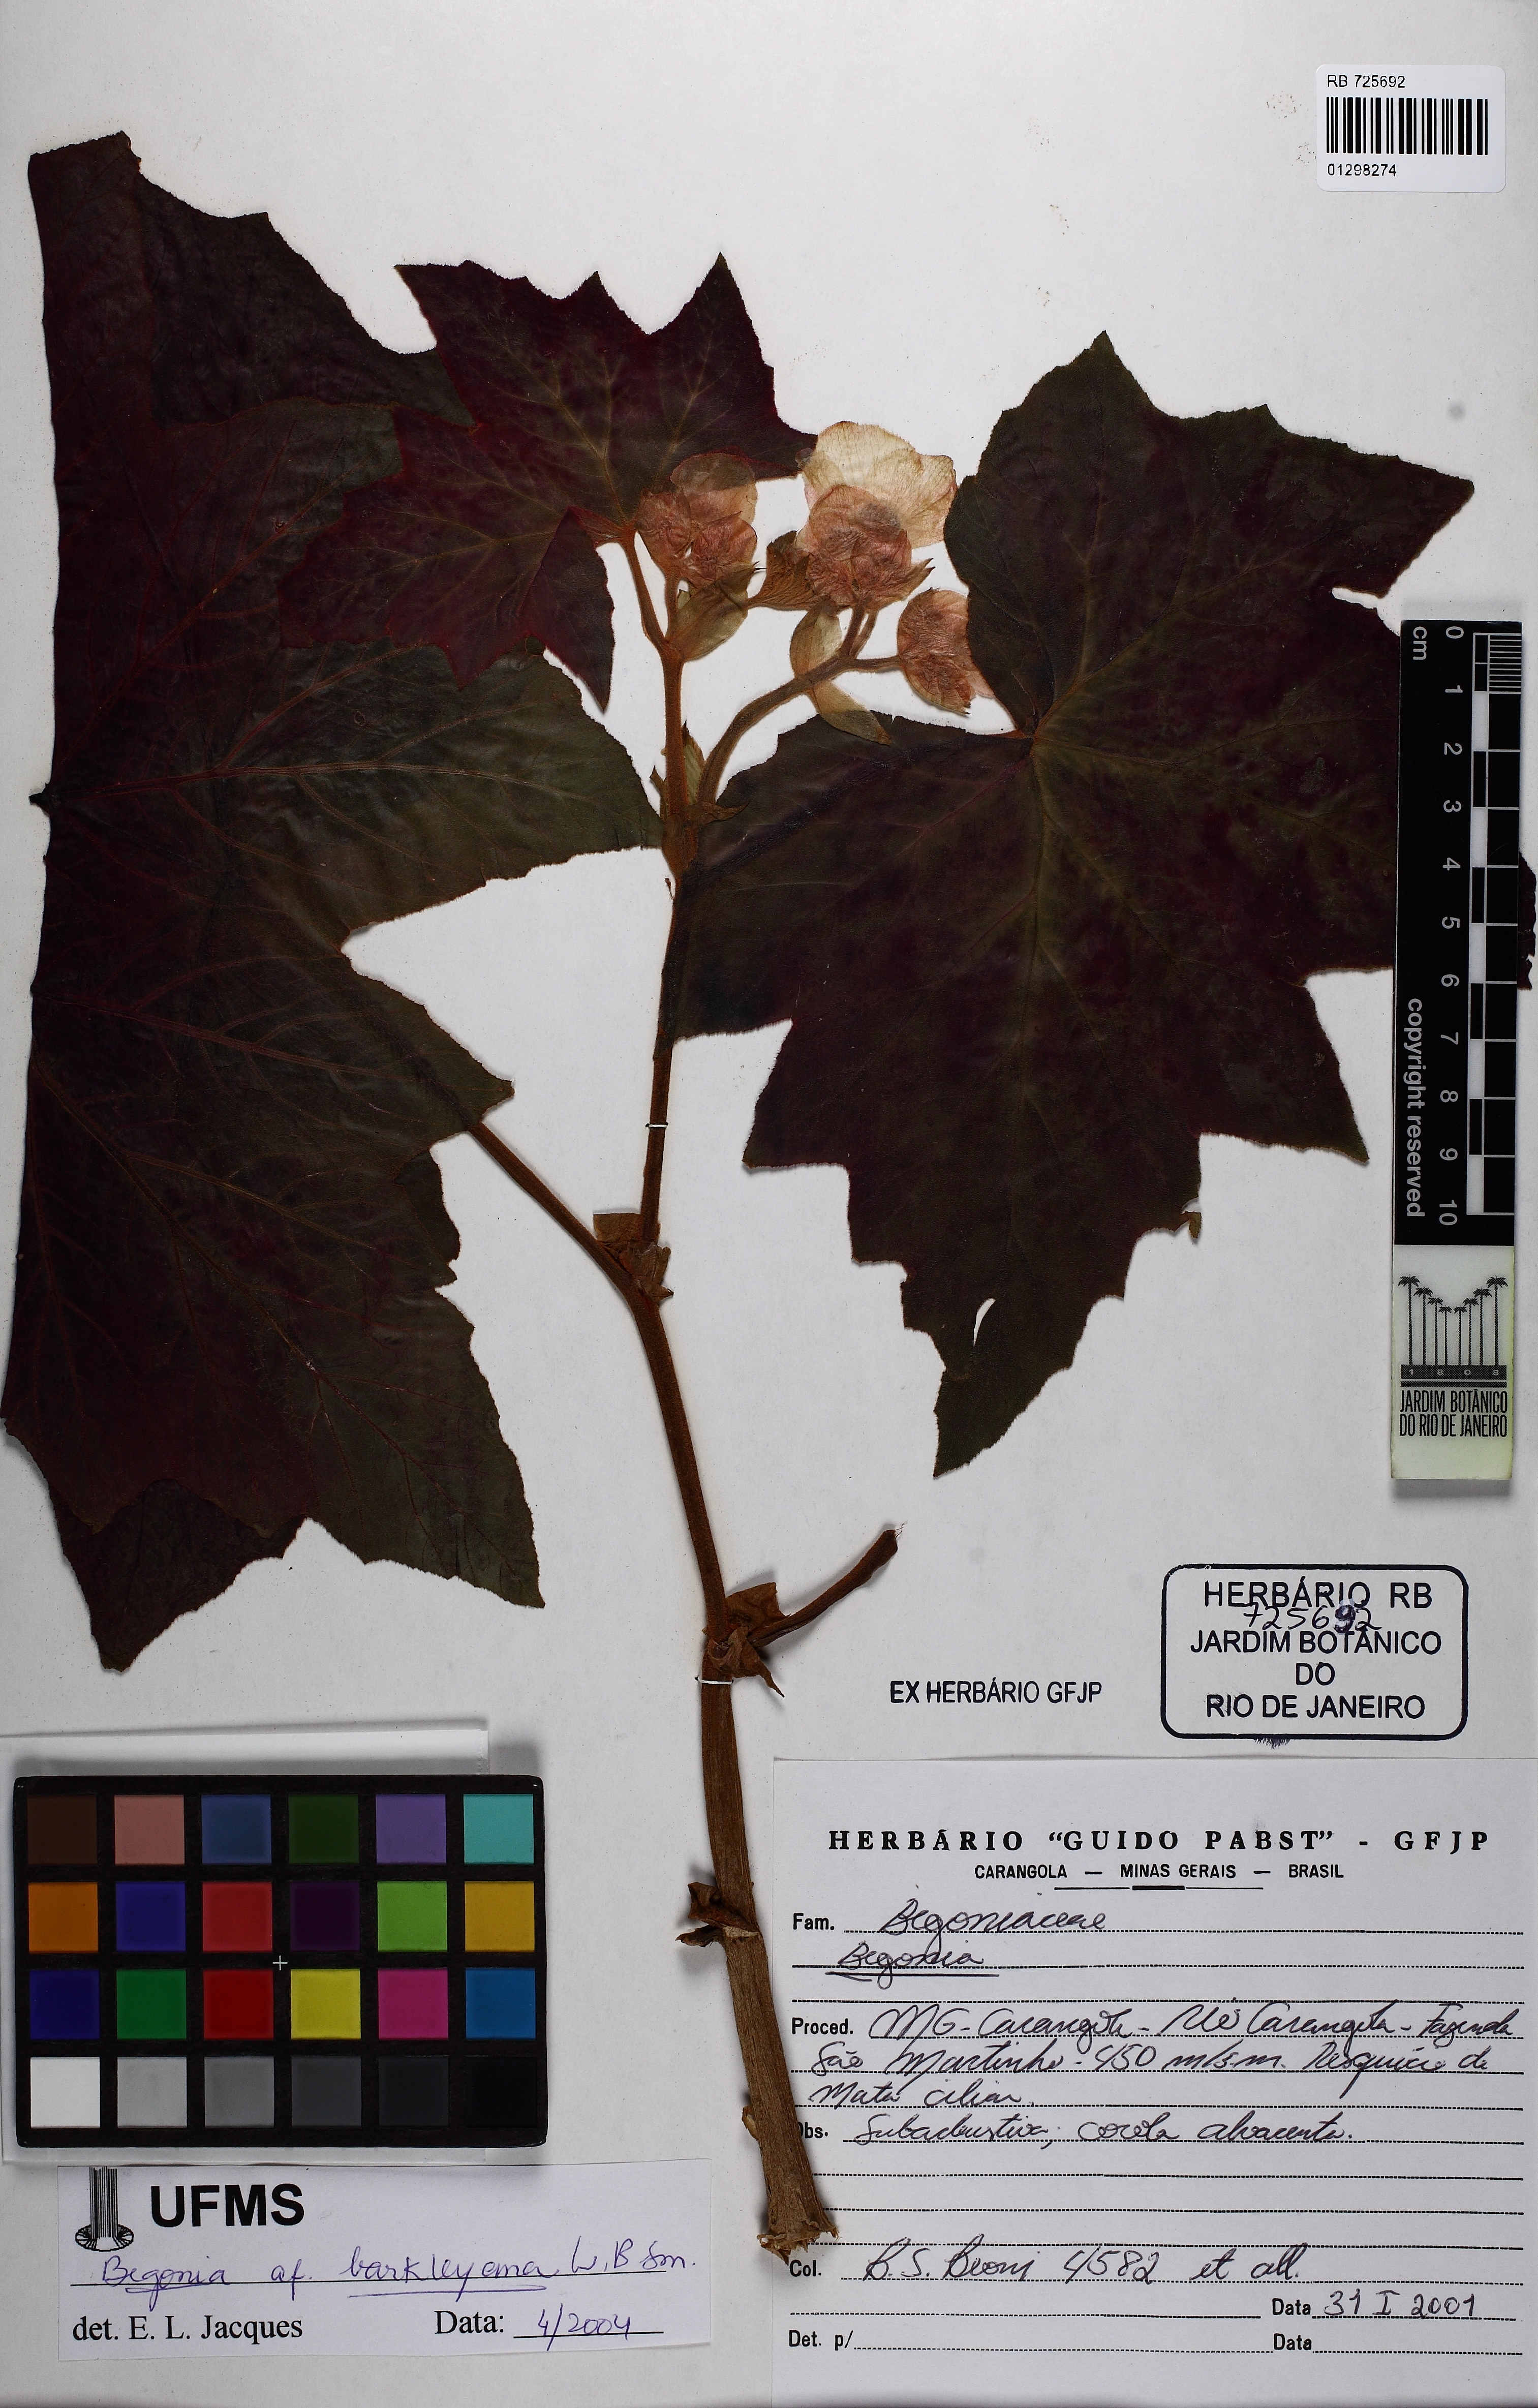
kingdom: Plantae
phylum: Tracheophyta
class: Magnoliopsida
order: Cucurbitales
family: Begoniaceae
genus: Begonia
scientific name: Begonia barkleyana
